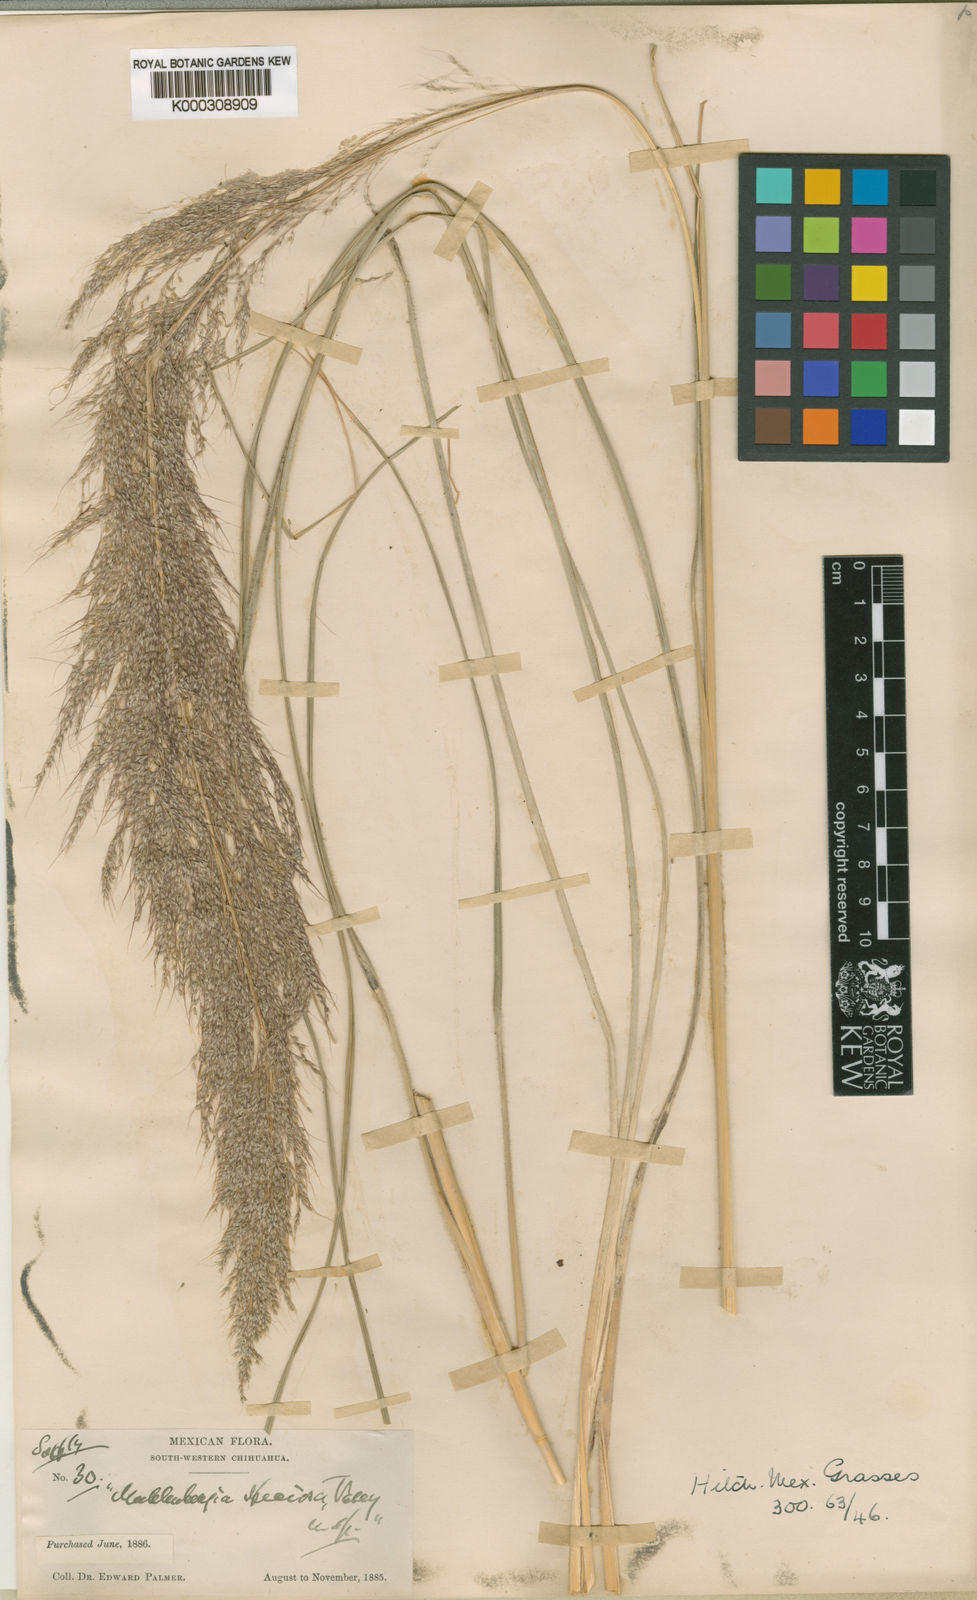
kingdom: Plantae
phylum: Tracheophyta
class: Liliopsida
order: Poales
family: Poaceae
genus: Muhlenbergia
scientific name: Muhlenbergia speciosa
